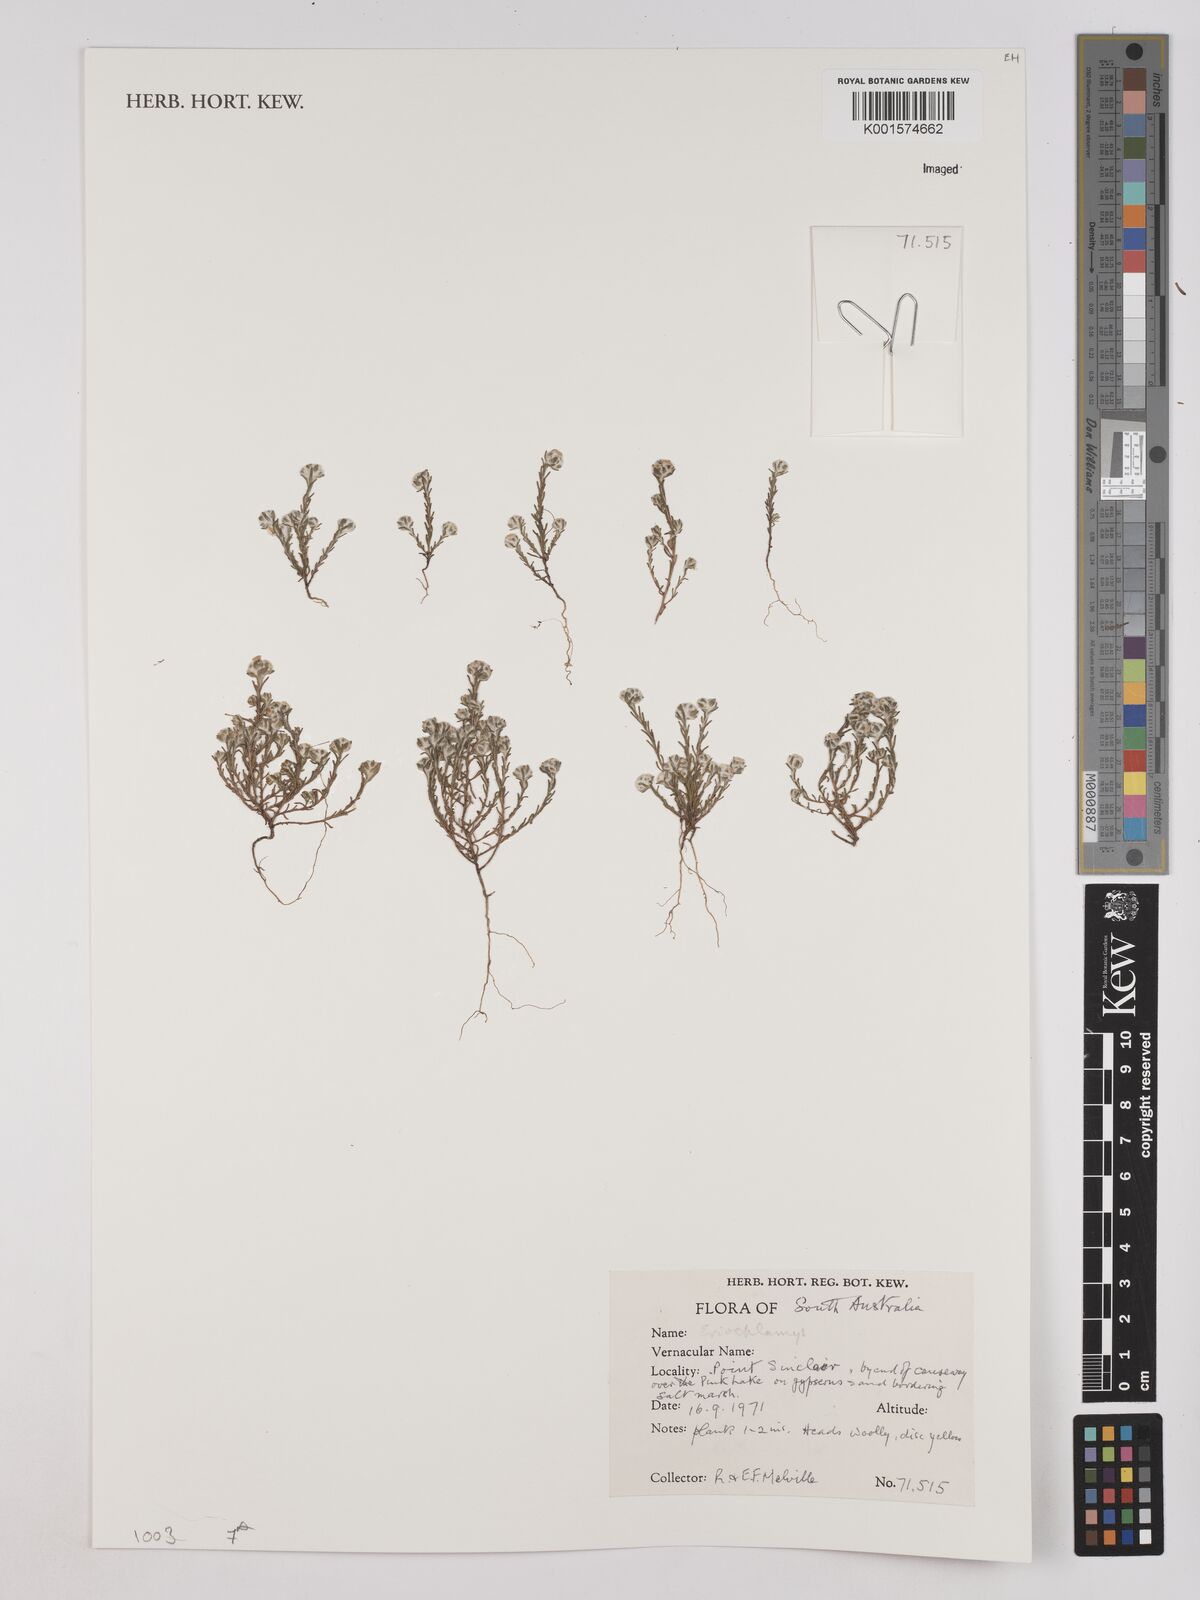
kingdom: Plantae
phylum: Tracheophyta
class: Magnoliopsida
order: Asterales
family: Asteraceae
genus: Eriochlamys
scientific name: Eriochlamys
